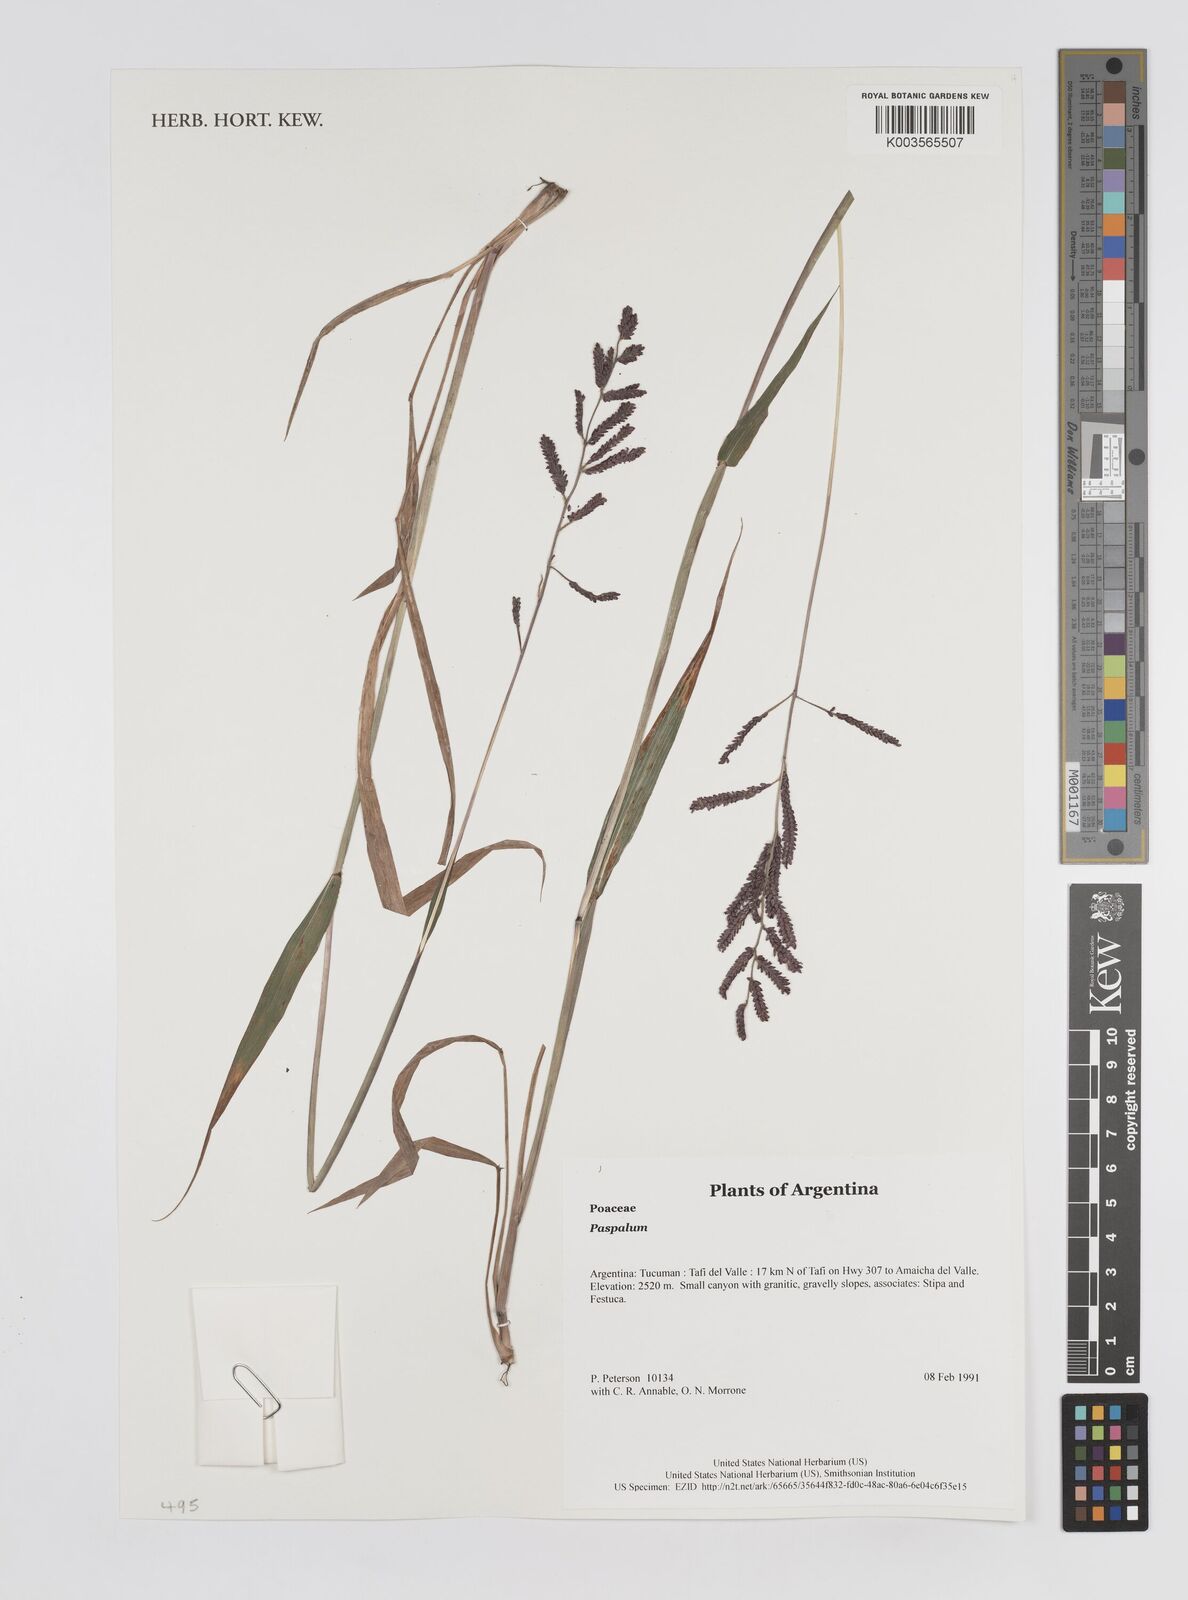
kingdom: Plantae
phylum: Tracheophyta
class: Liliopsida
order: Poales
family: Poaceae
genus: Paspalum
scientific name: Paspalum
